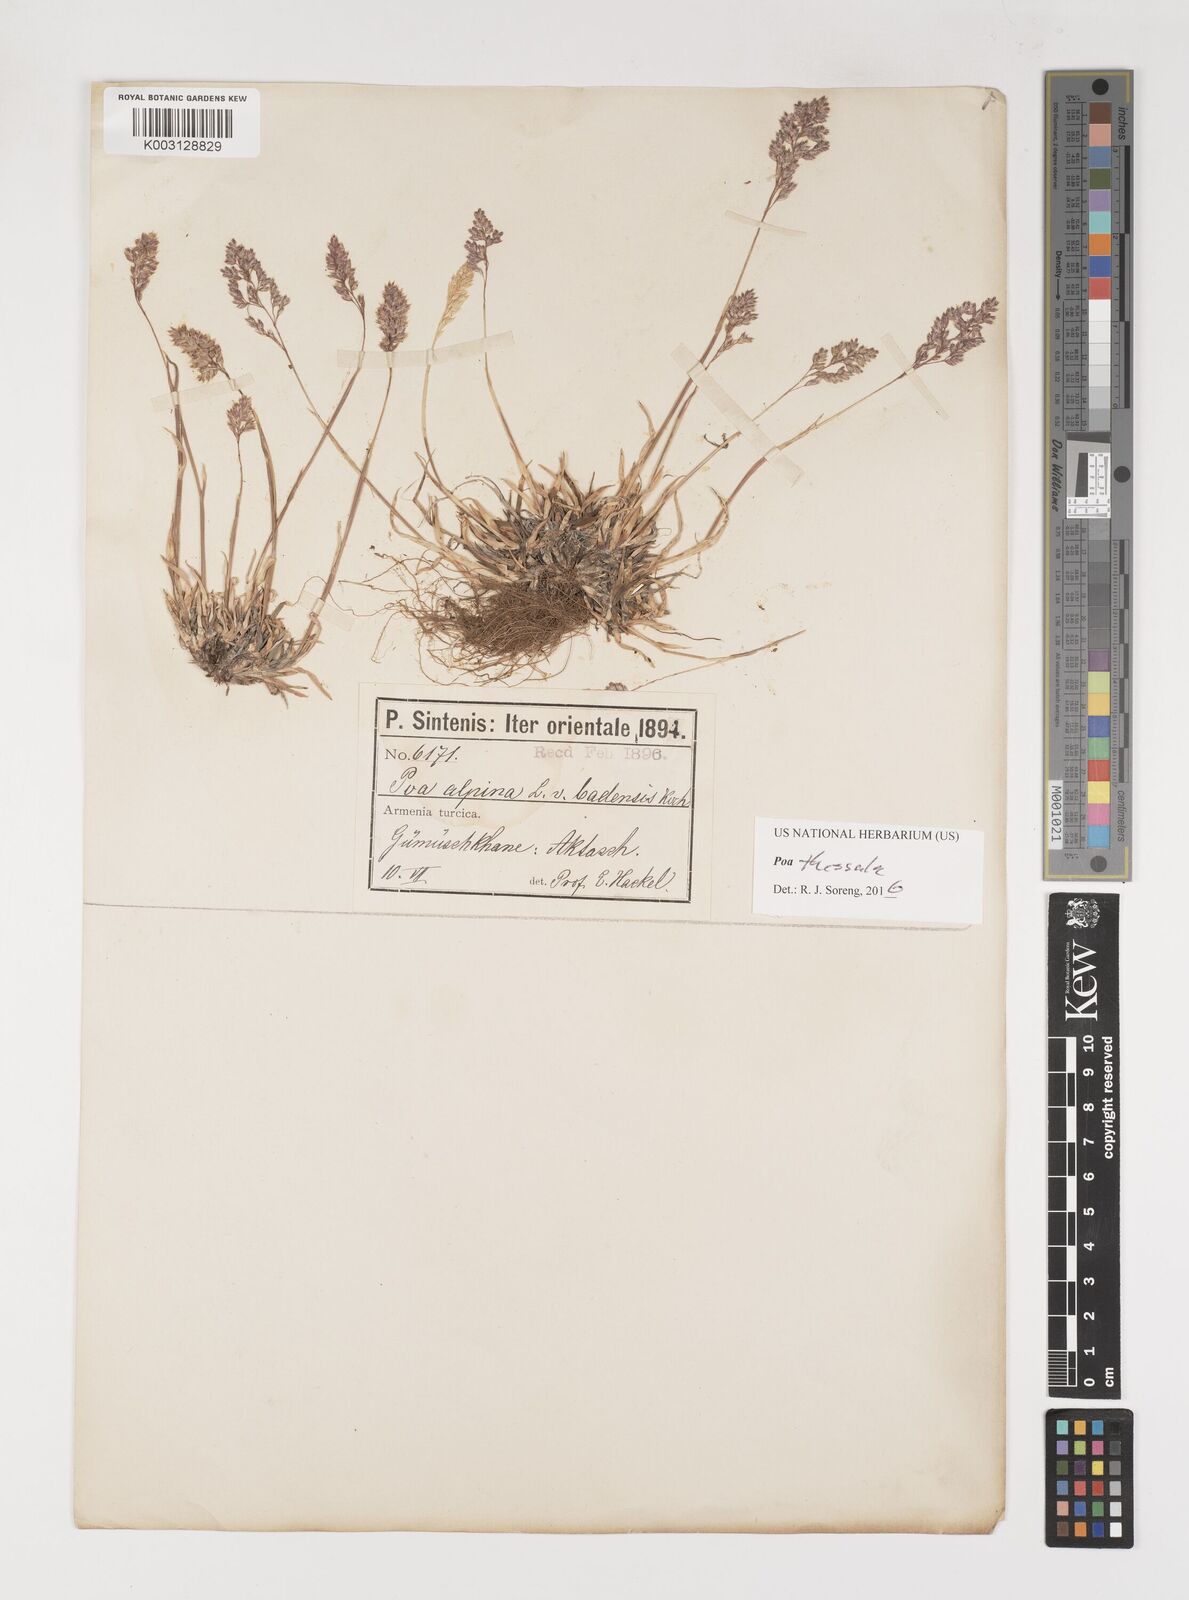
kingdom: Plantae
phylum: Tracheophyta
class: Liliopsida
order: Poales
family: Poaceae
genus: Poa
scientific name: Poa thessala
